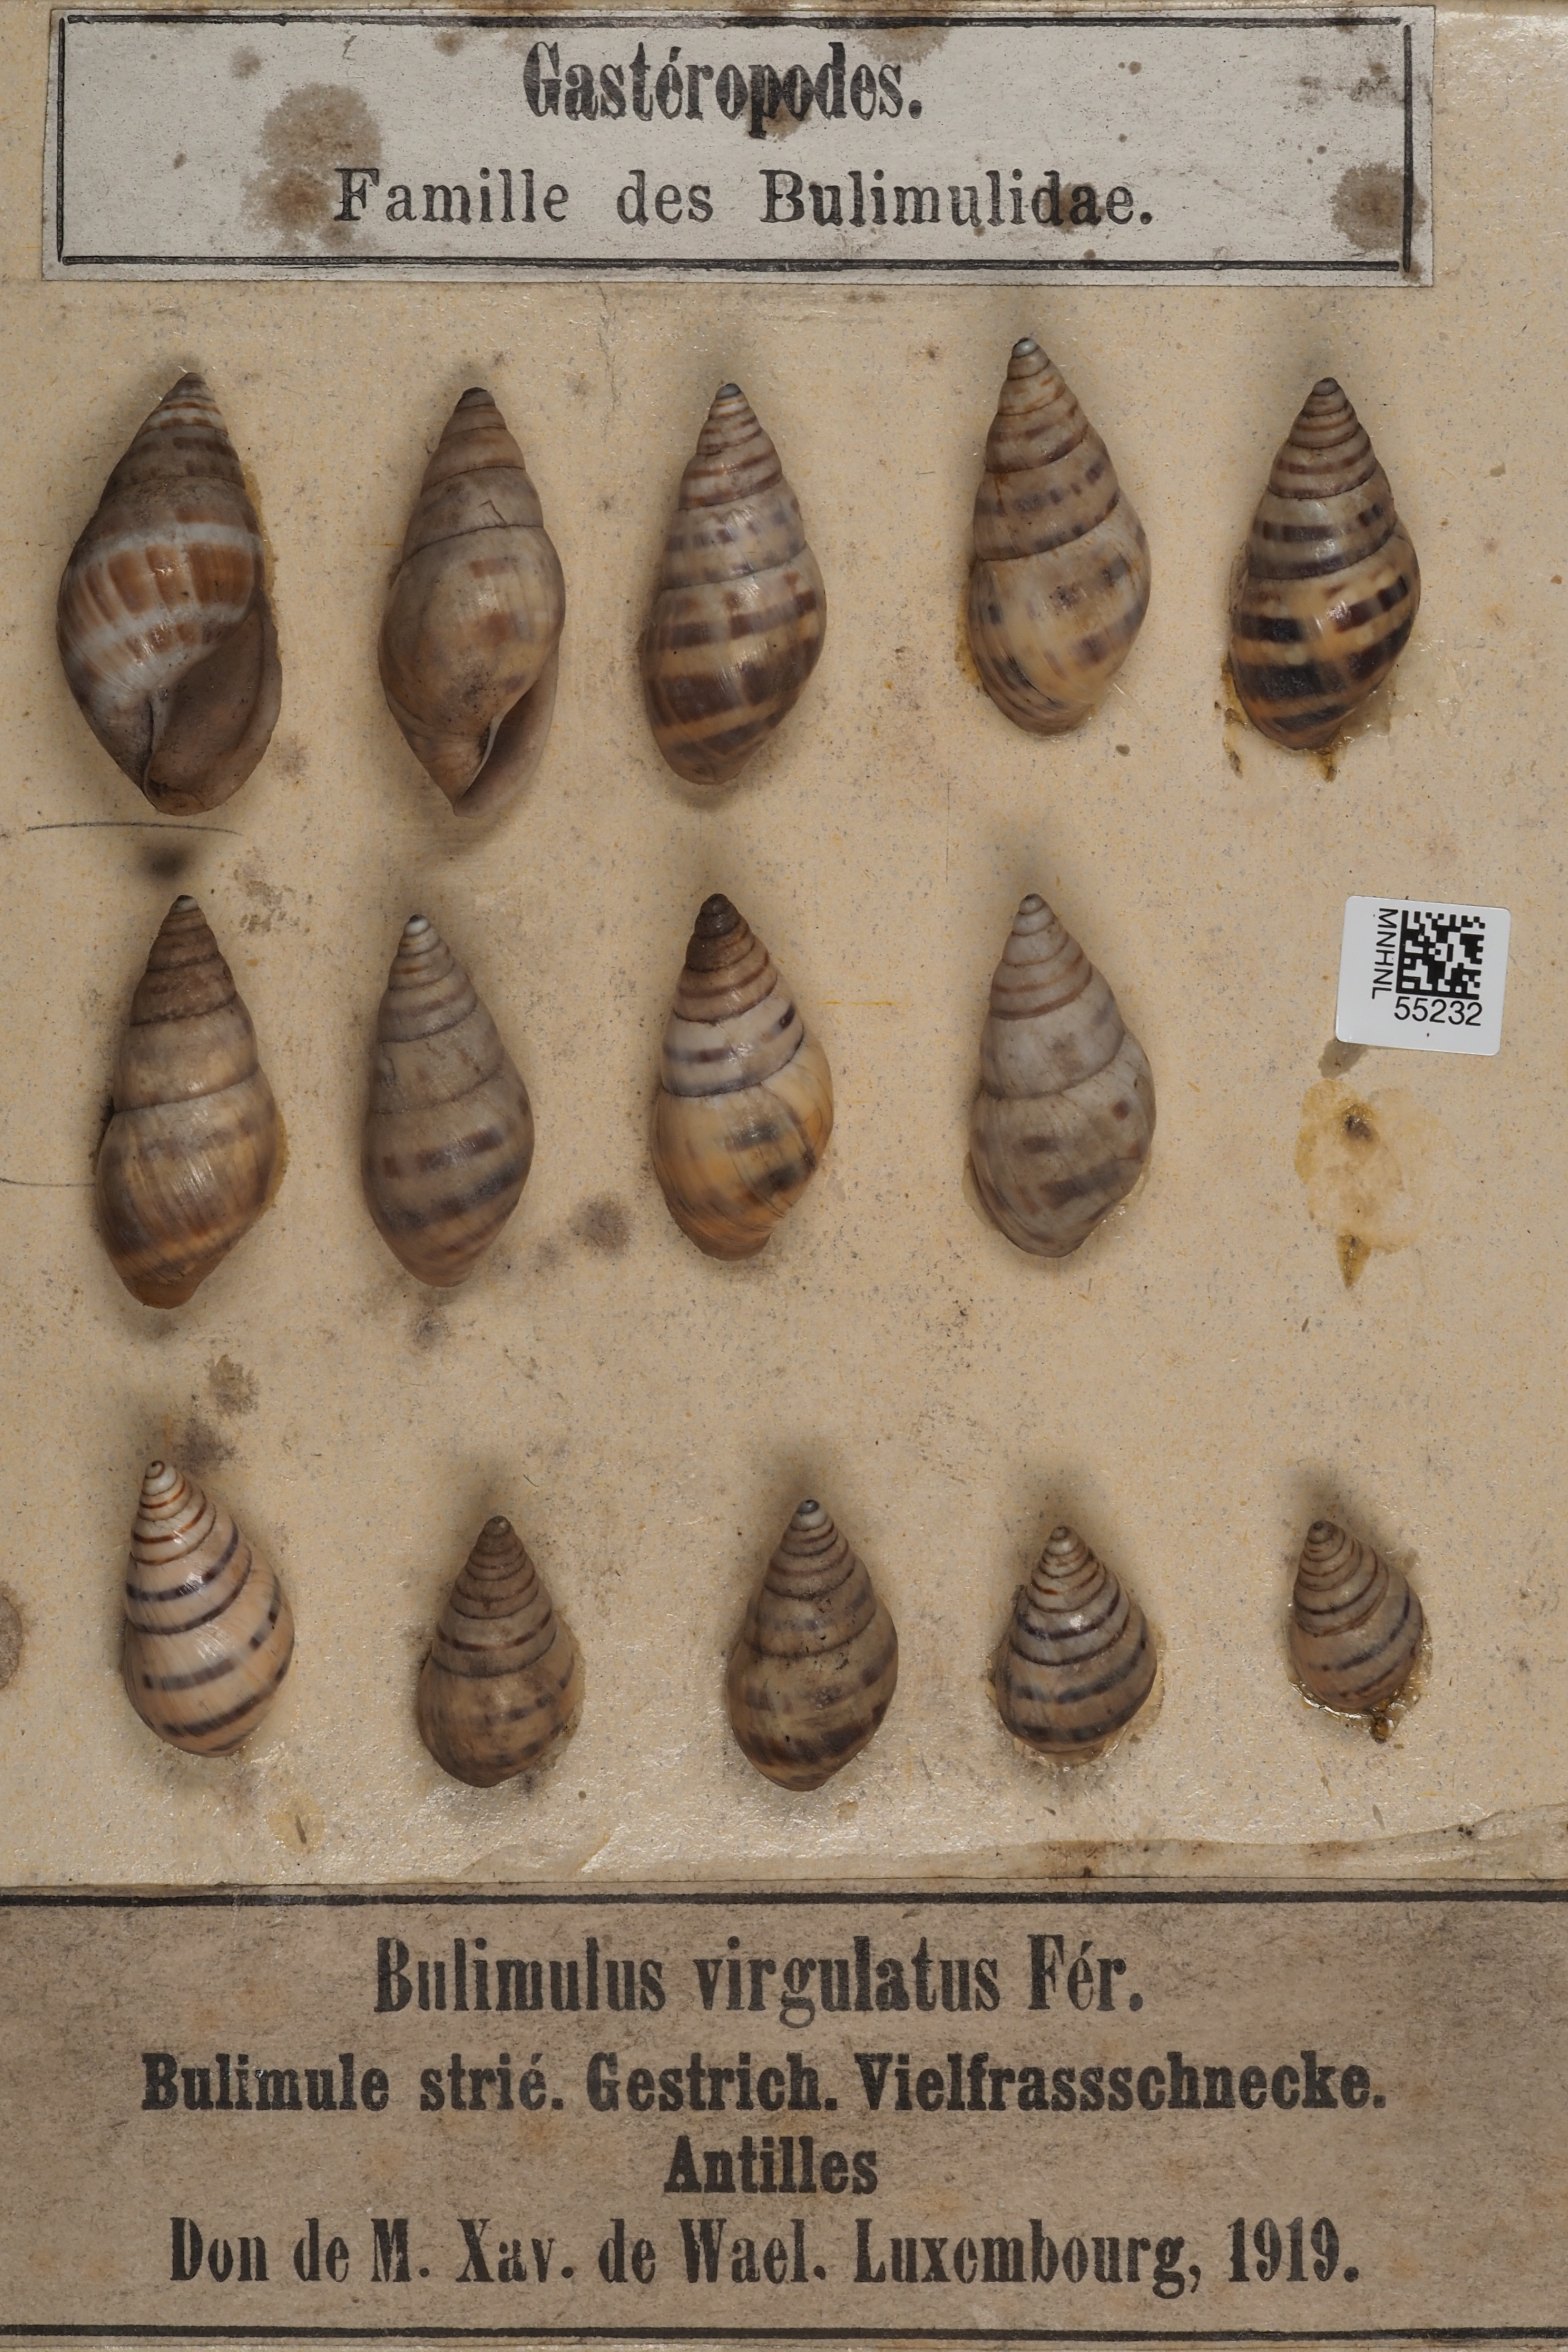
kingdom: Animalia
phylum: Mollusca
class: Gastropoda
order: Stylommatophora
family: Bulimulidae
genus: Drymaeus
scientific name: Drymaeus elongatus
